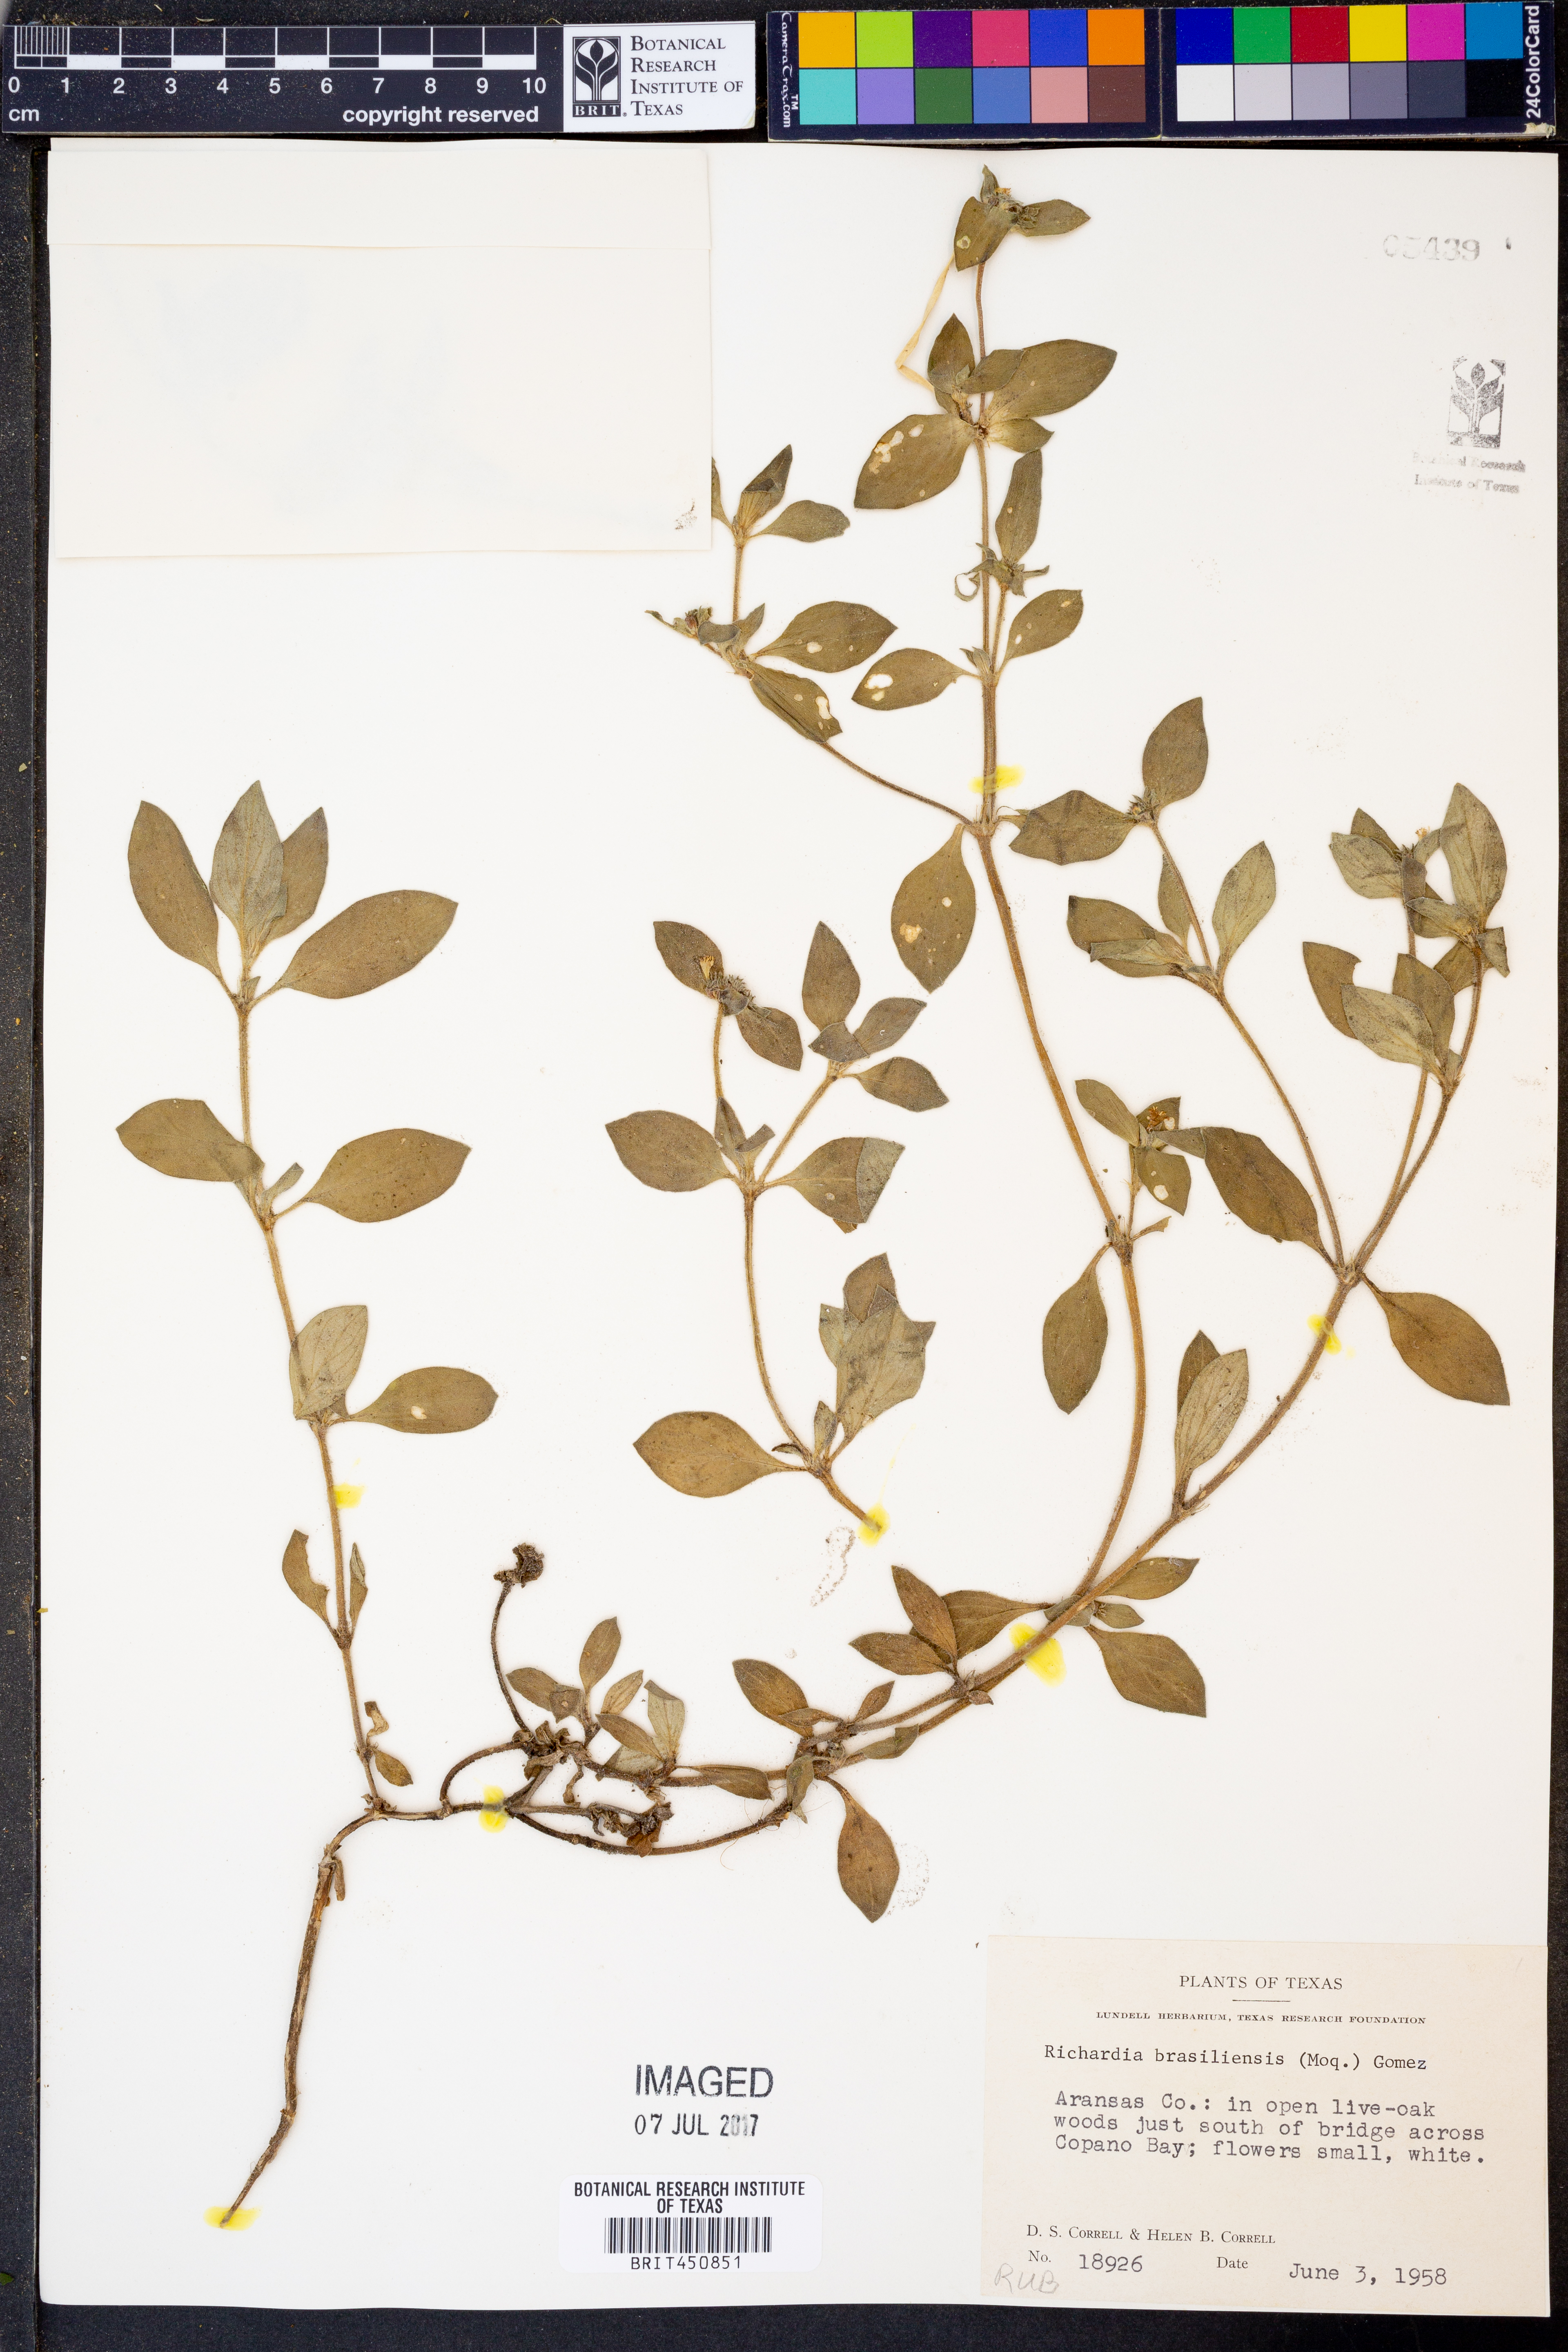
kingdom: Plantae
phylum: Tracheophyta
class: Magnoliopsida
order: Gentianales
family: Rubiaceae
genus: Richardia
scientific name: Richardia brasiliensis
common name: Tropical mexican clover
